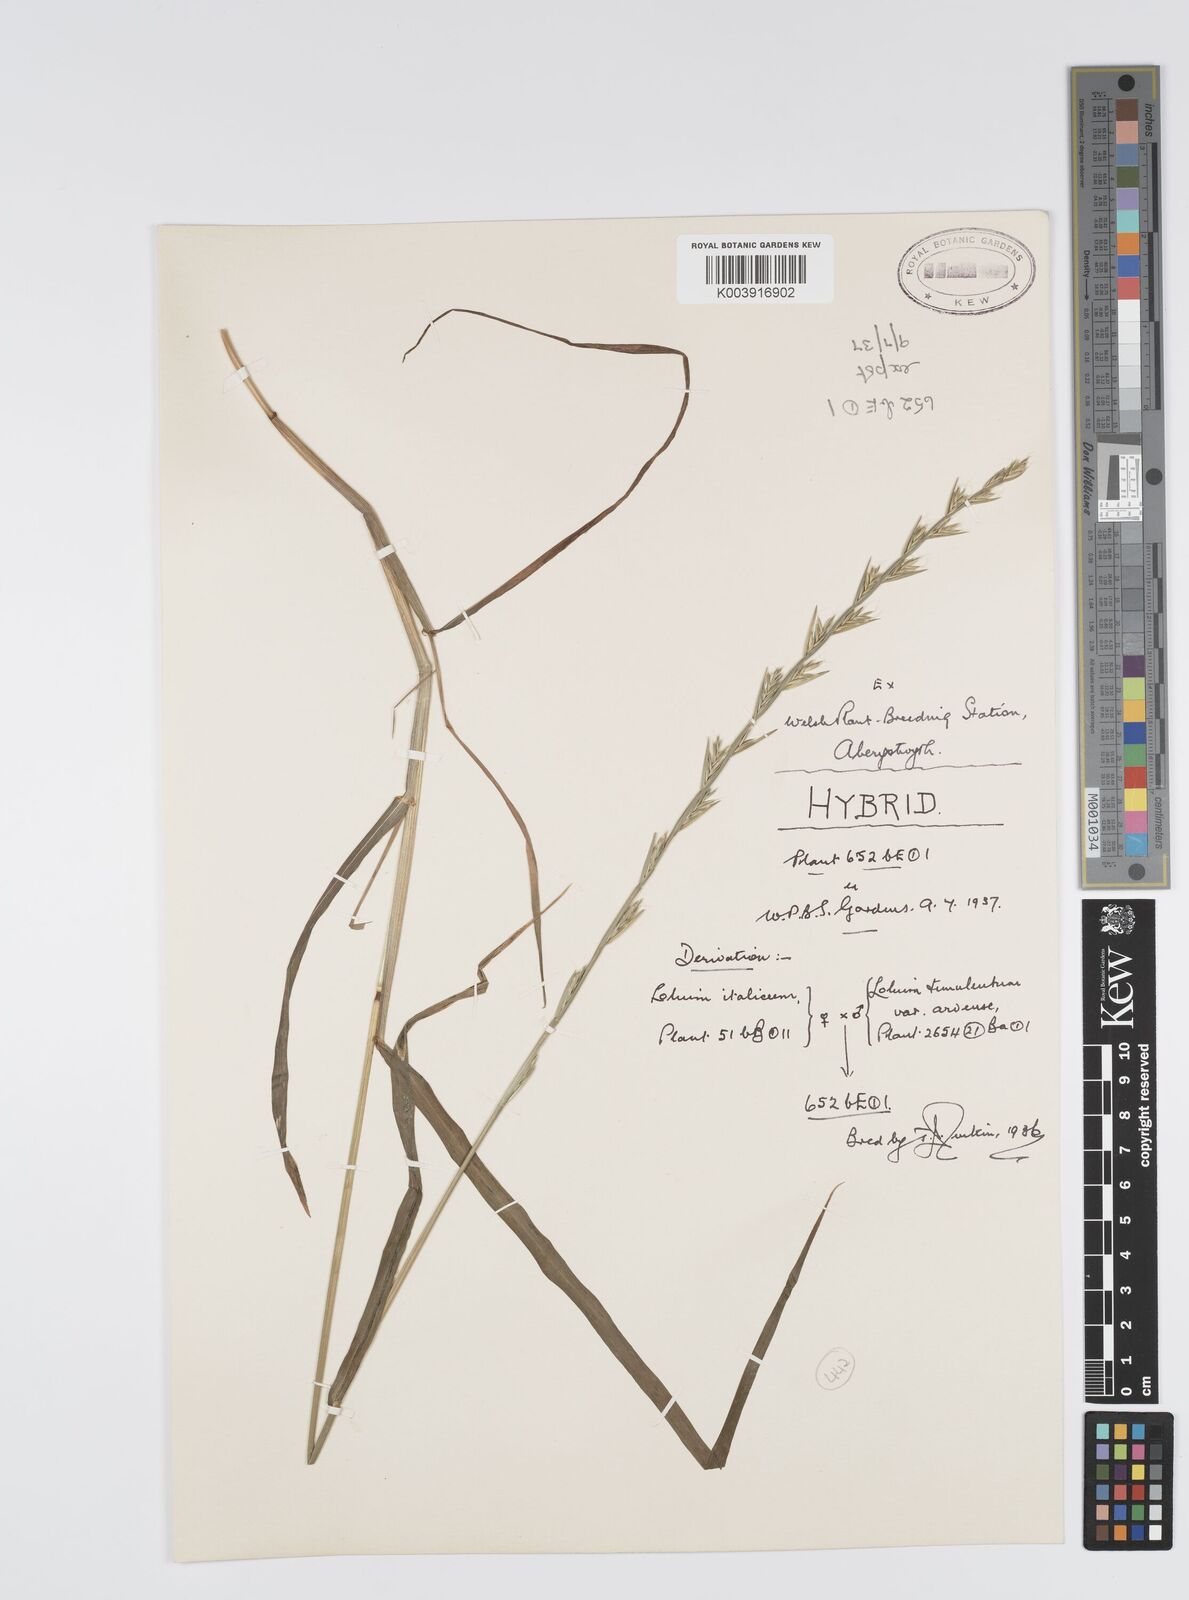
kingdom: Plantae
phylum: Tracheophyta
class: Liliopsida
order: Poales
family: Poaceae
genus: Lolium
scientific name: Lolium multiflorum
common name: Annual ryegrass
